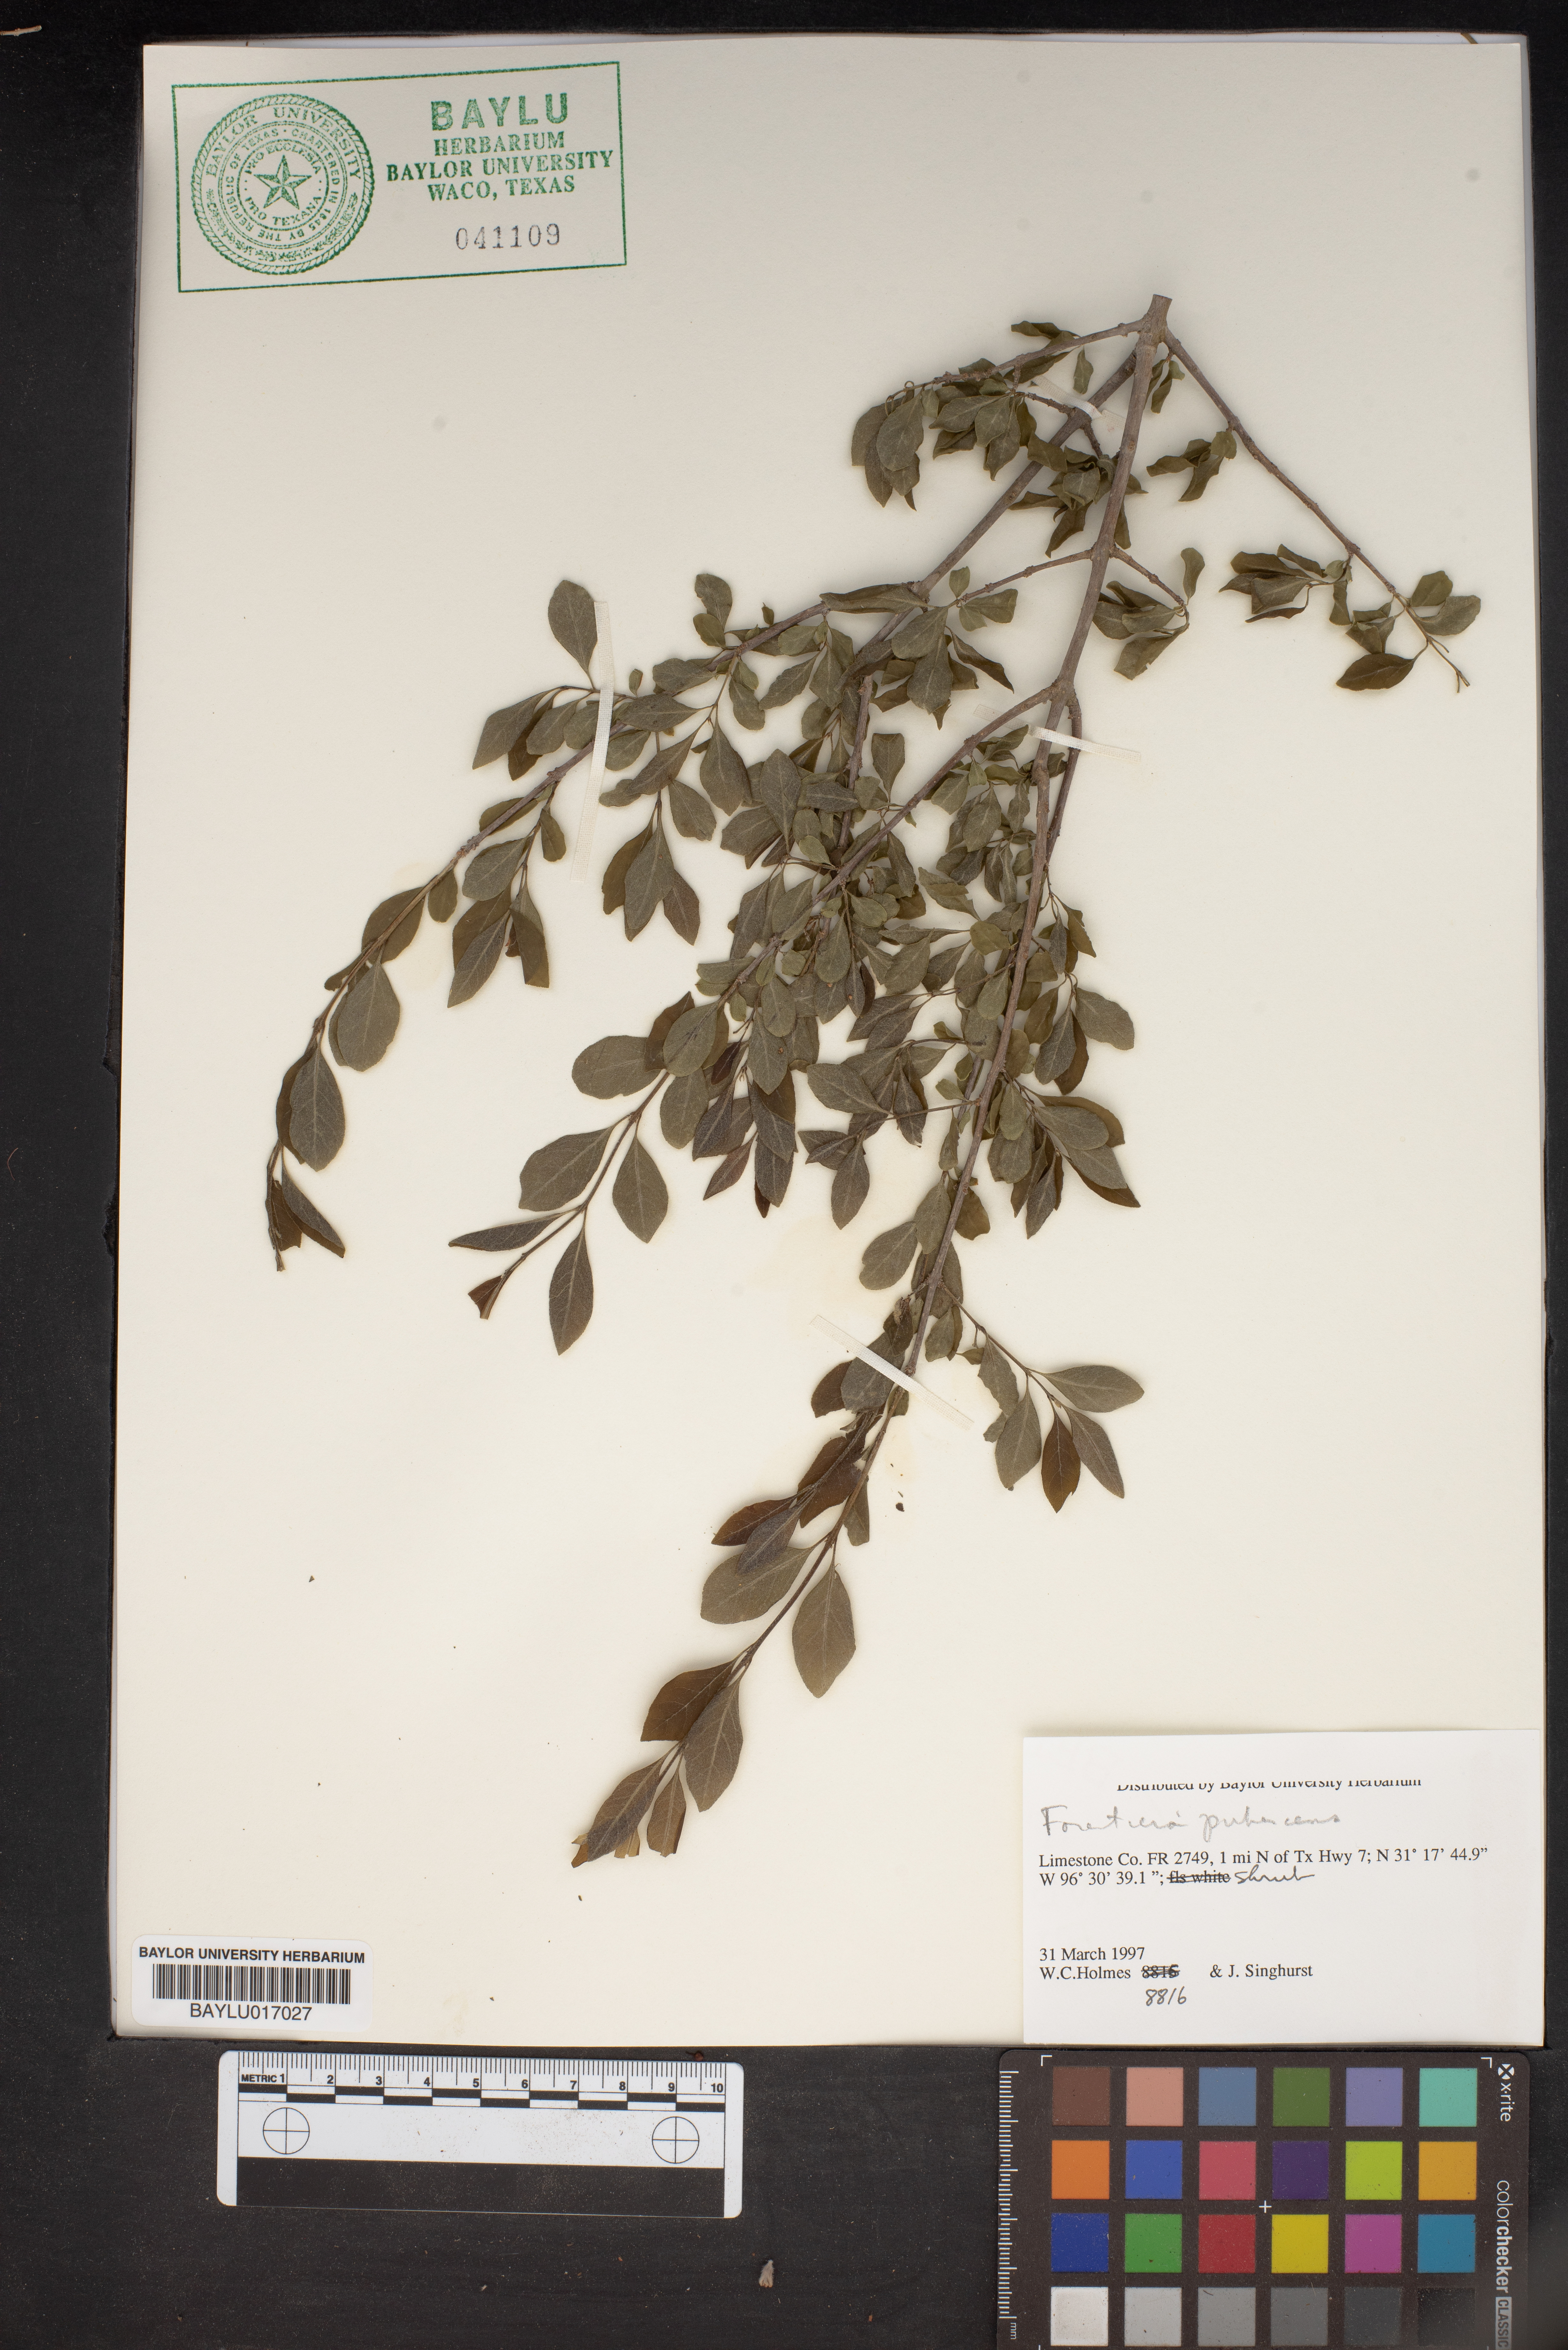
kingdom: Plantae
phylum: Tracheophyta
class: Magnoliopsida
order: Lamiales
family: Oleaceae
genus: Forestiera
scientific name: Forestiera pubescens
